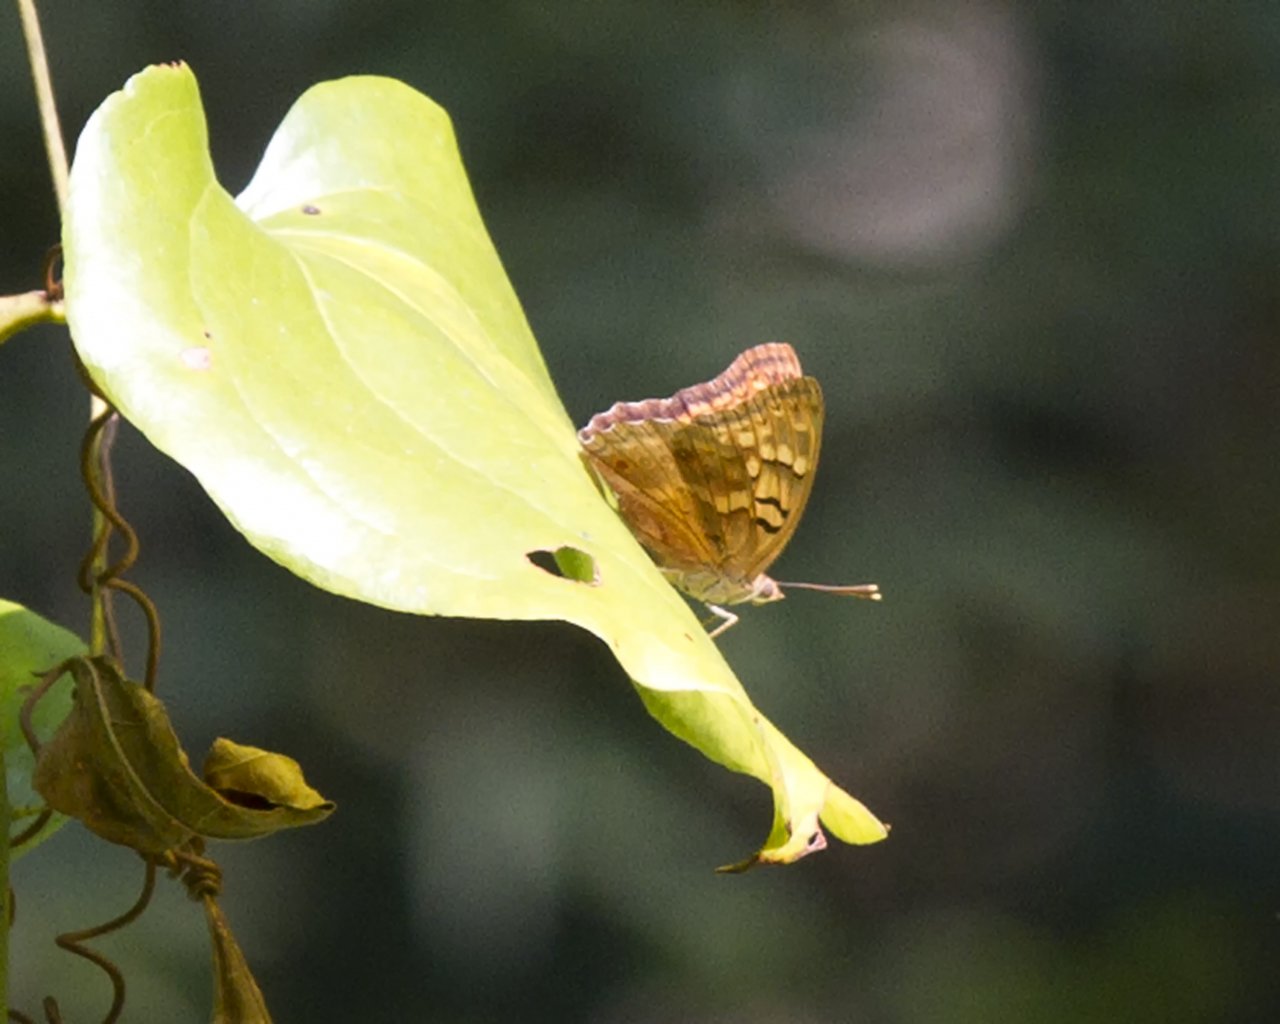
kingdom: Animalia
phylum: Arthropoda
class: Insecta
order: Lepidoptera
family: Nymphalidae
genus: Asterocampa
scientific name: Asterocampa clyton
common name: Tawny Emperor
